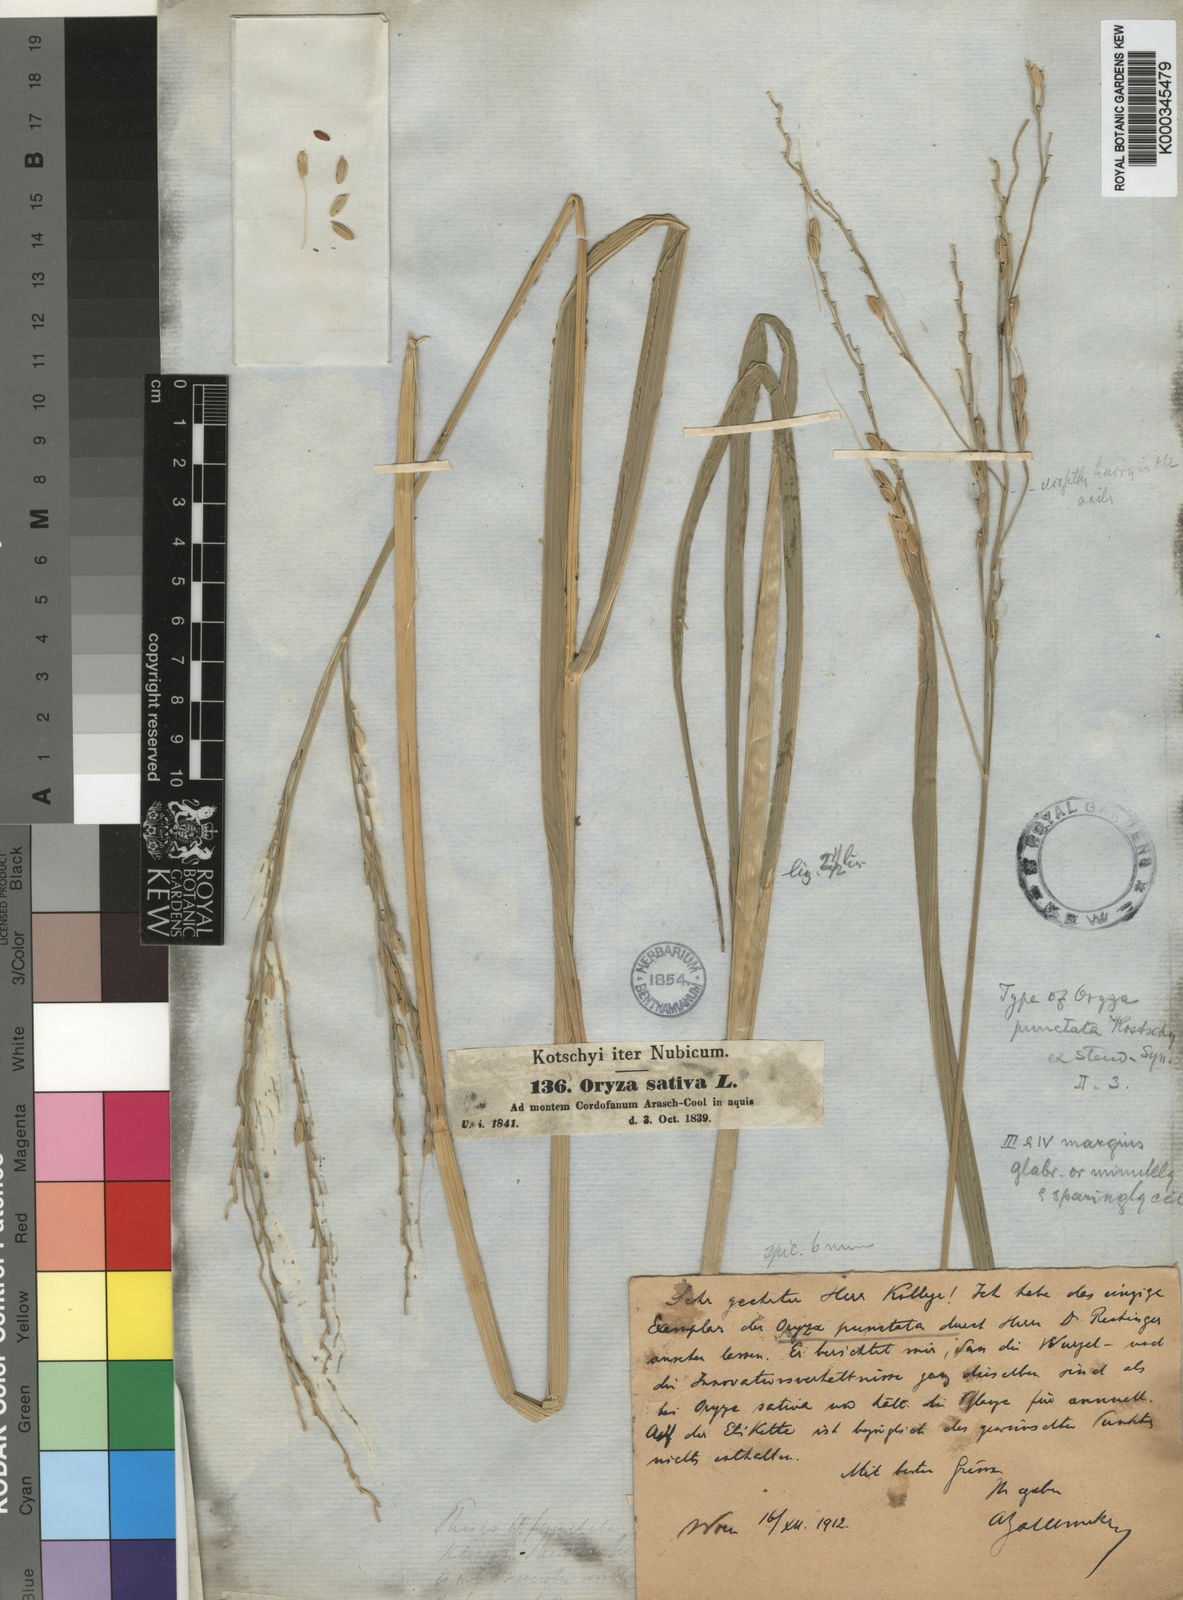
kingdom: Plantae
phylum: Tracheophyta
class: Liliopsida
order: Poales
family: Poaceae
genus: Oryza
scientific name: Oryza punctata
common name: Red rice
